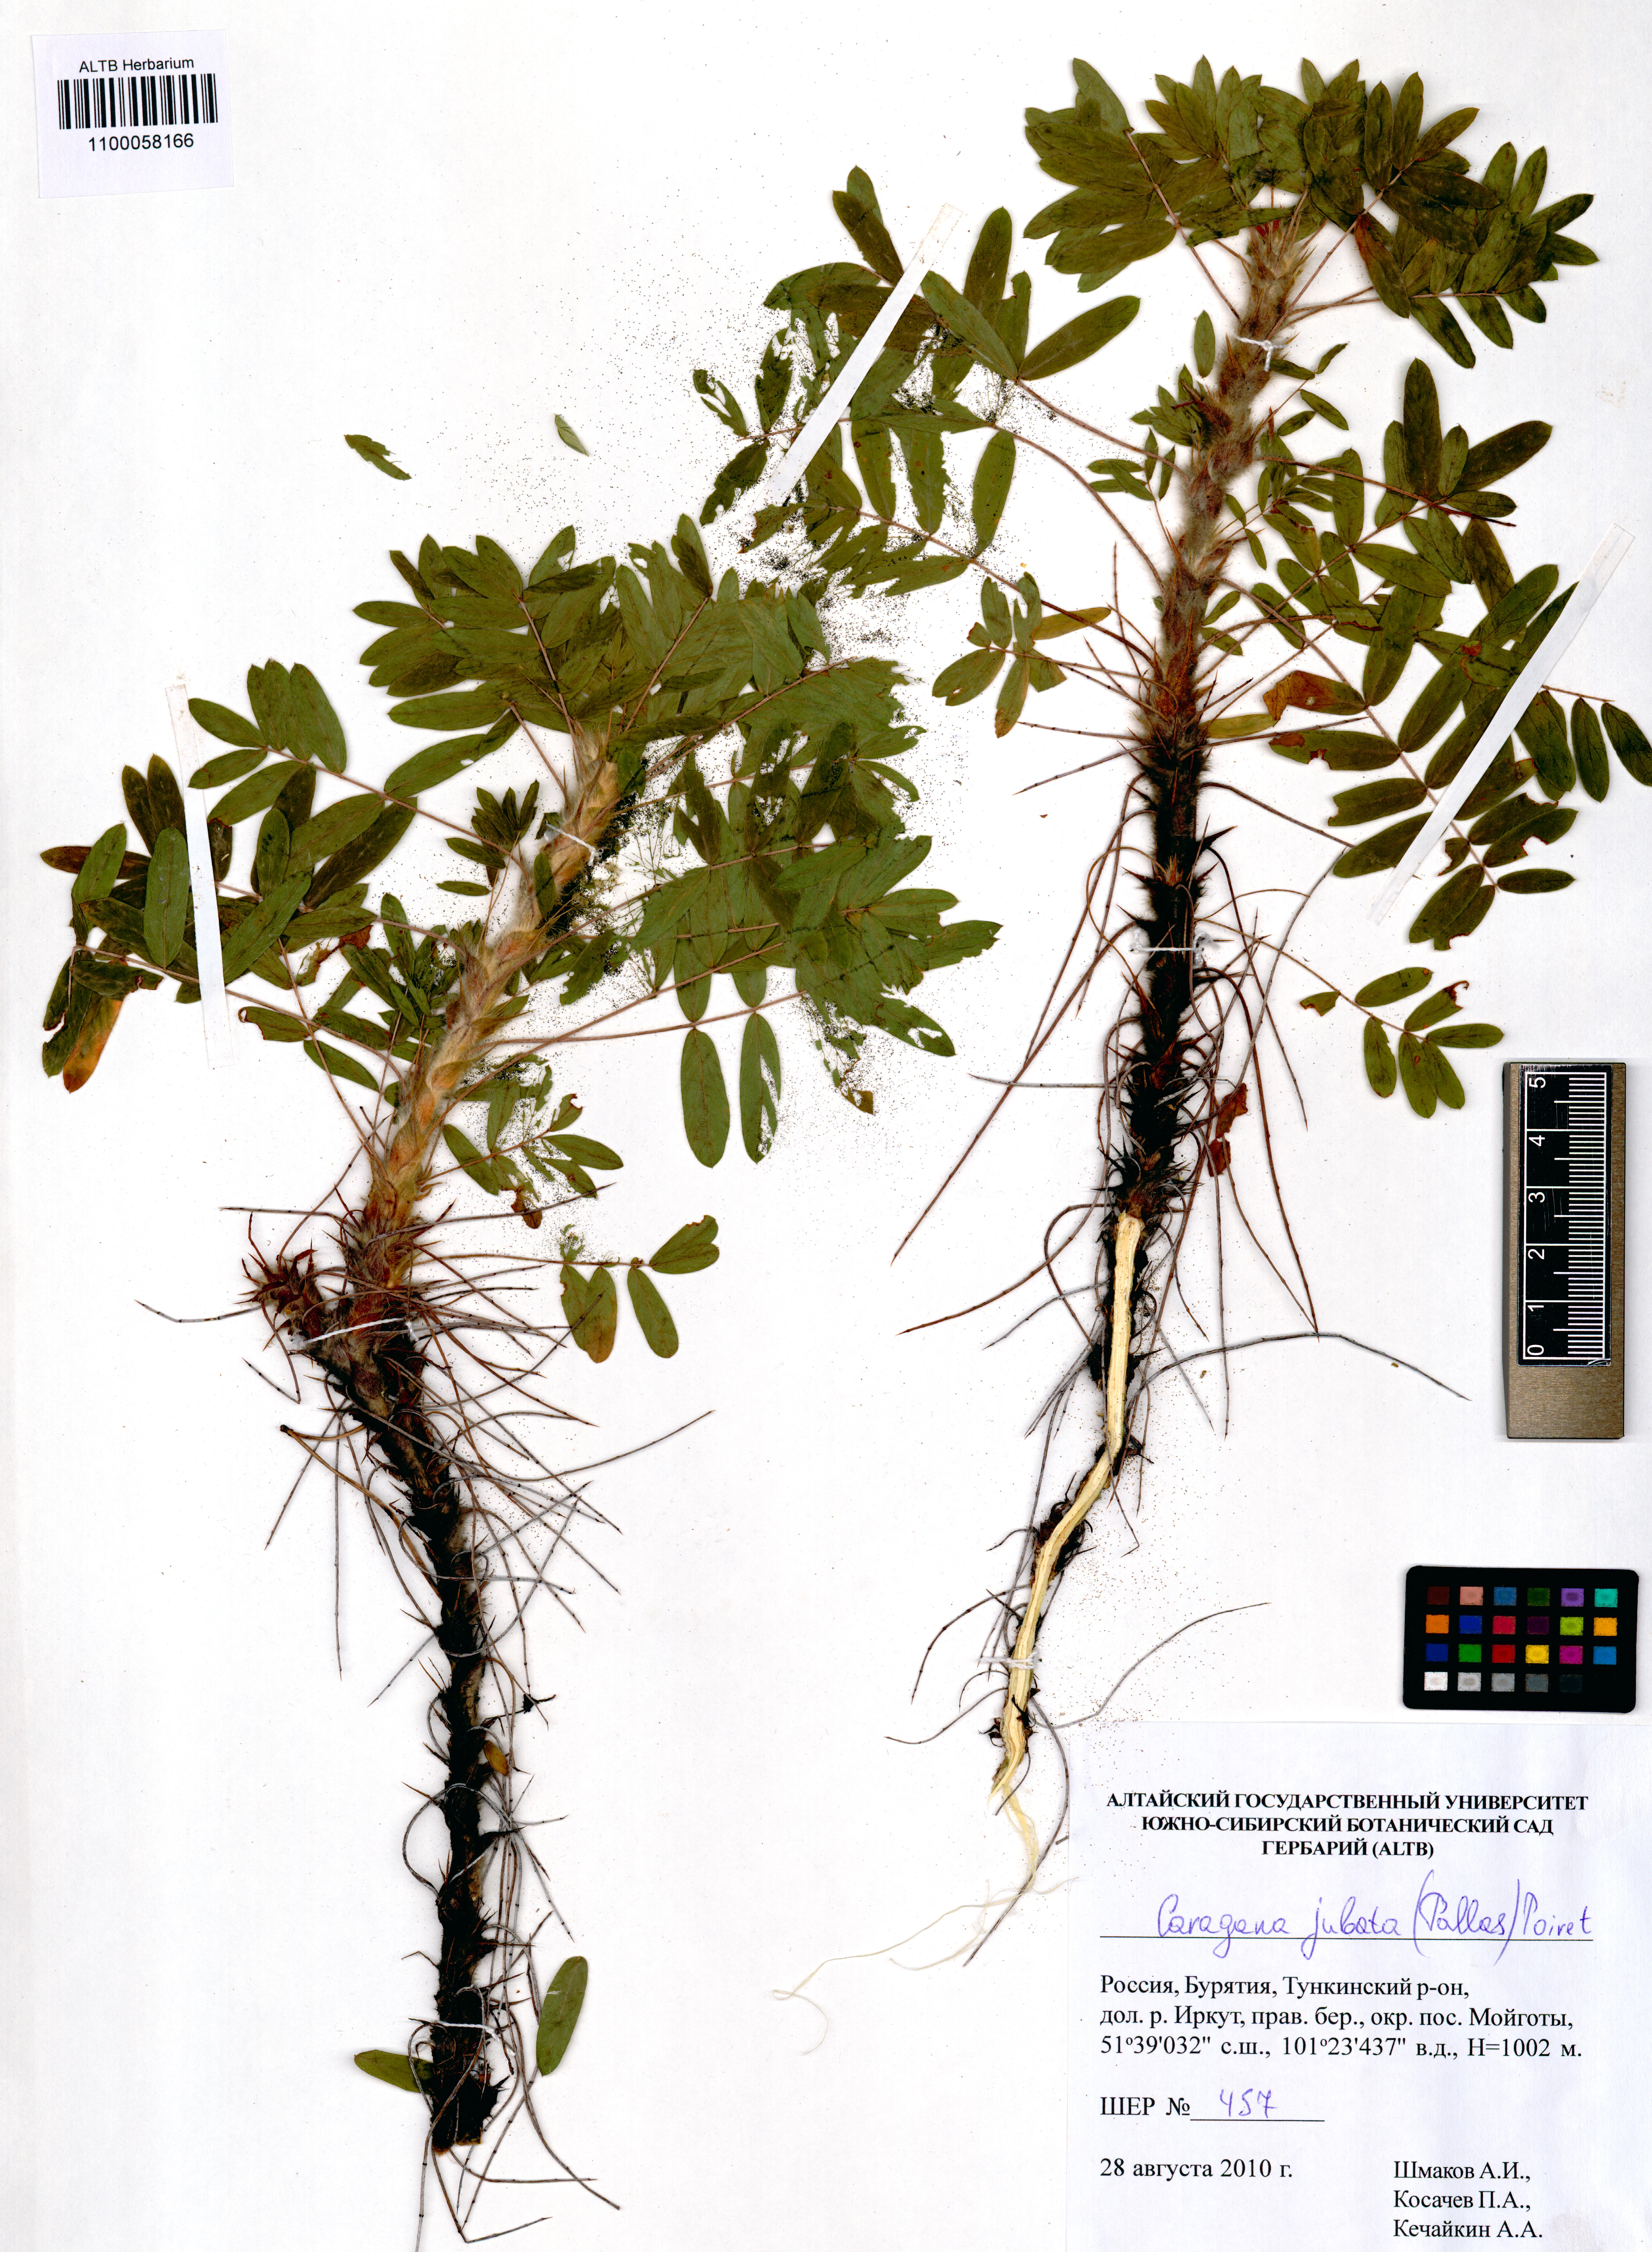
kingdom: Plantae
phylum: Tracheophyta
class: Magnoliopsida
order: Fabales
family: Fabaceae
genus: Caragana
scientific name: Caragana jubata
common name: Shag-spine peashrub
